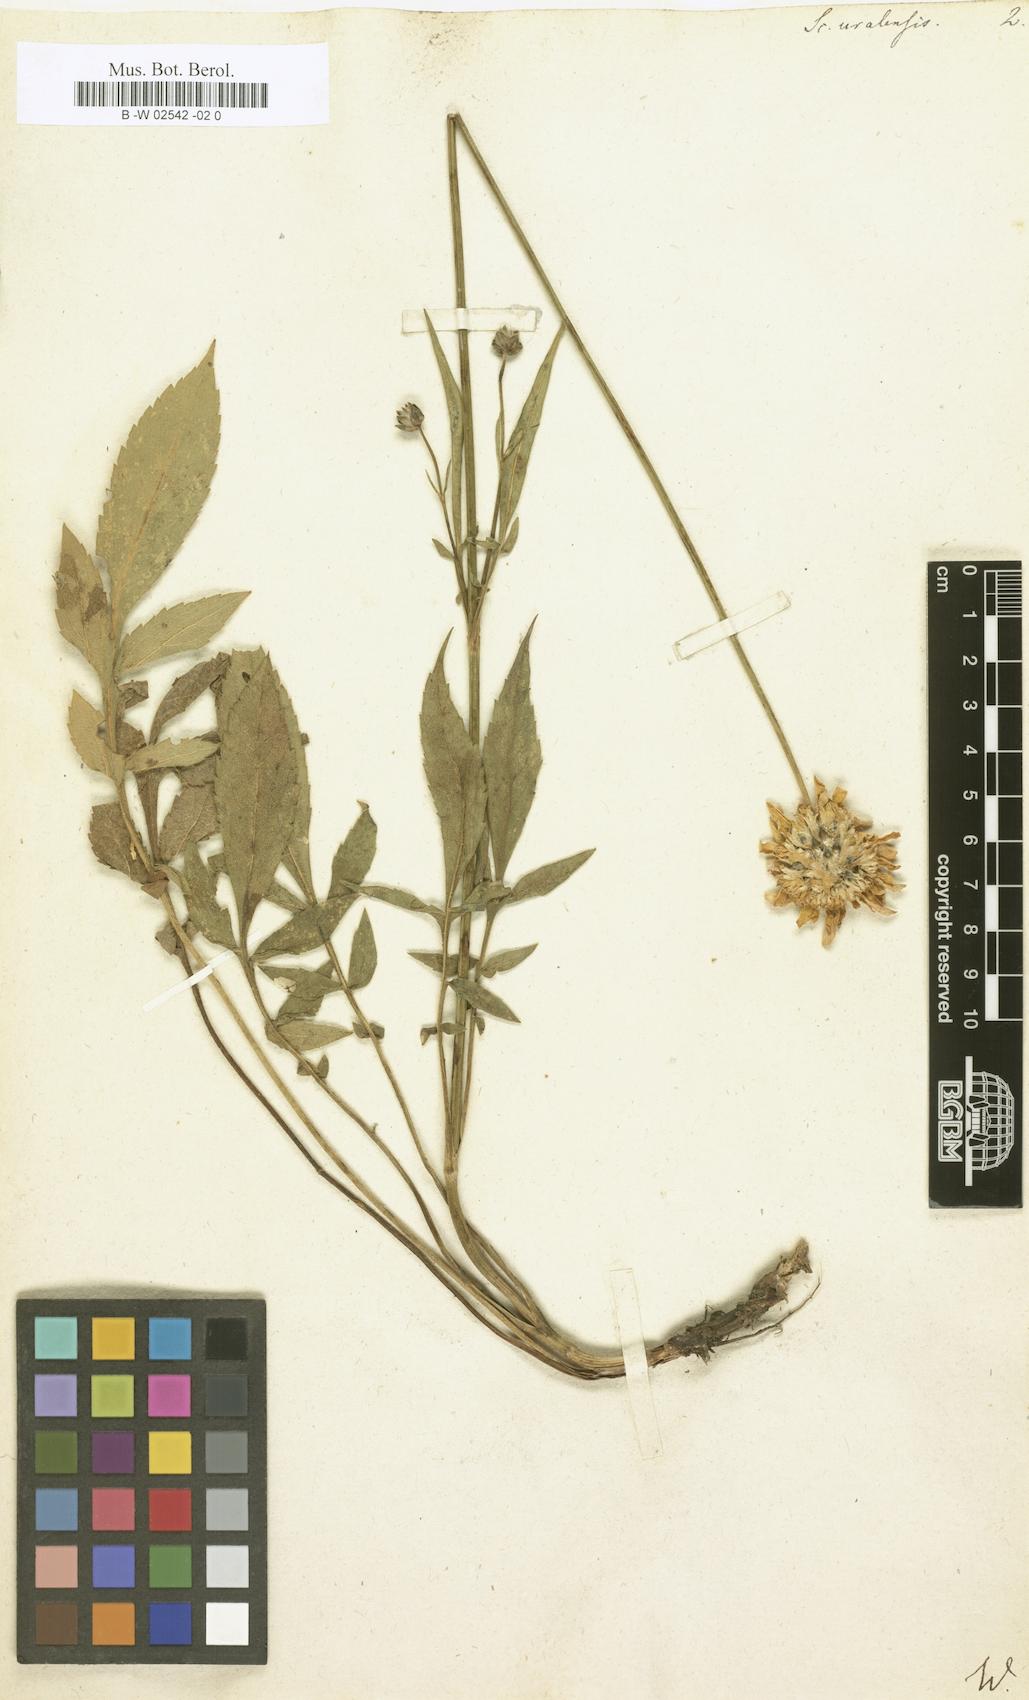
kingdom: Plantae
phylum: Tracheophyta
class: Magnoliopsida
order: Dipsacales
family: Caprifoliaceae
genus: Cephalaria
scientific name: Cephalaria uralensis
